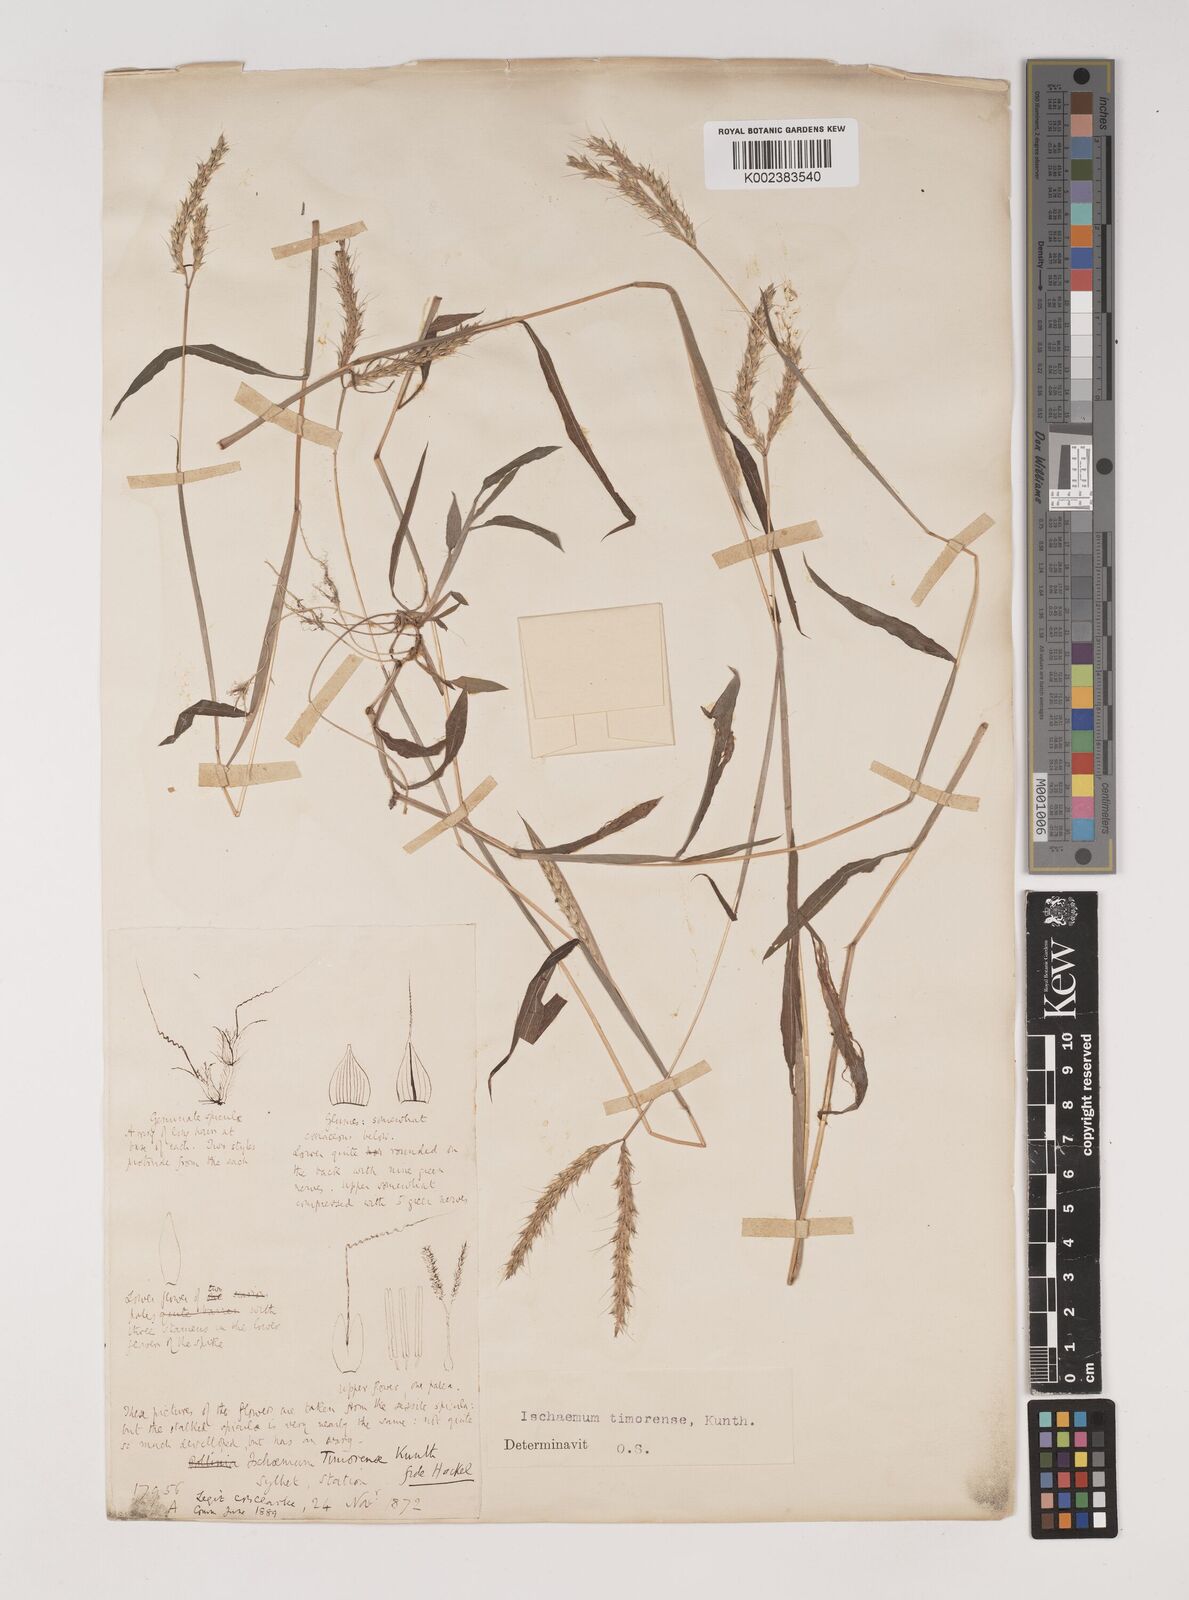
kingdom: Plantae
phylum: Tracheophyta
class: Liliopsida
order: Poales
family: Poaceae
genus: Ischaemum
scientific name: Ischaemum timorense
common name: Stalkleaf murainagrass
